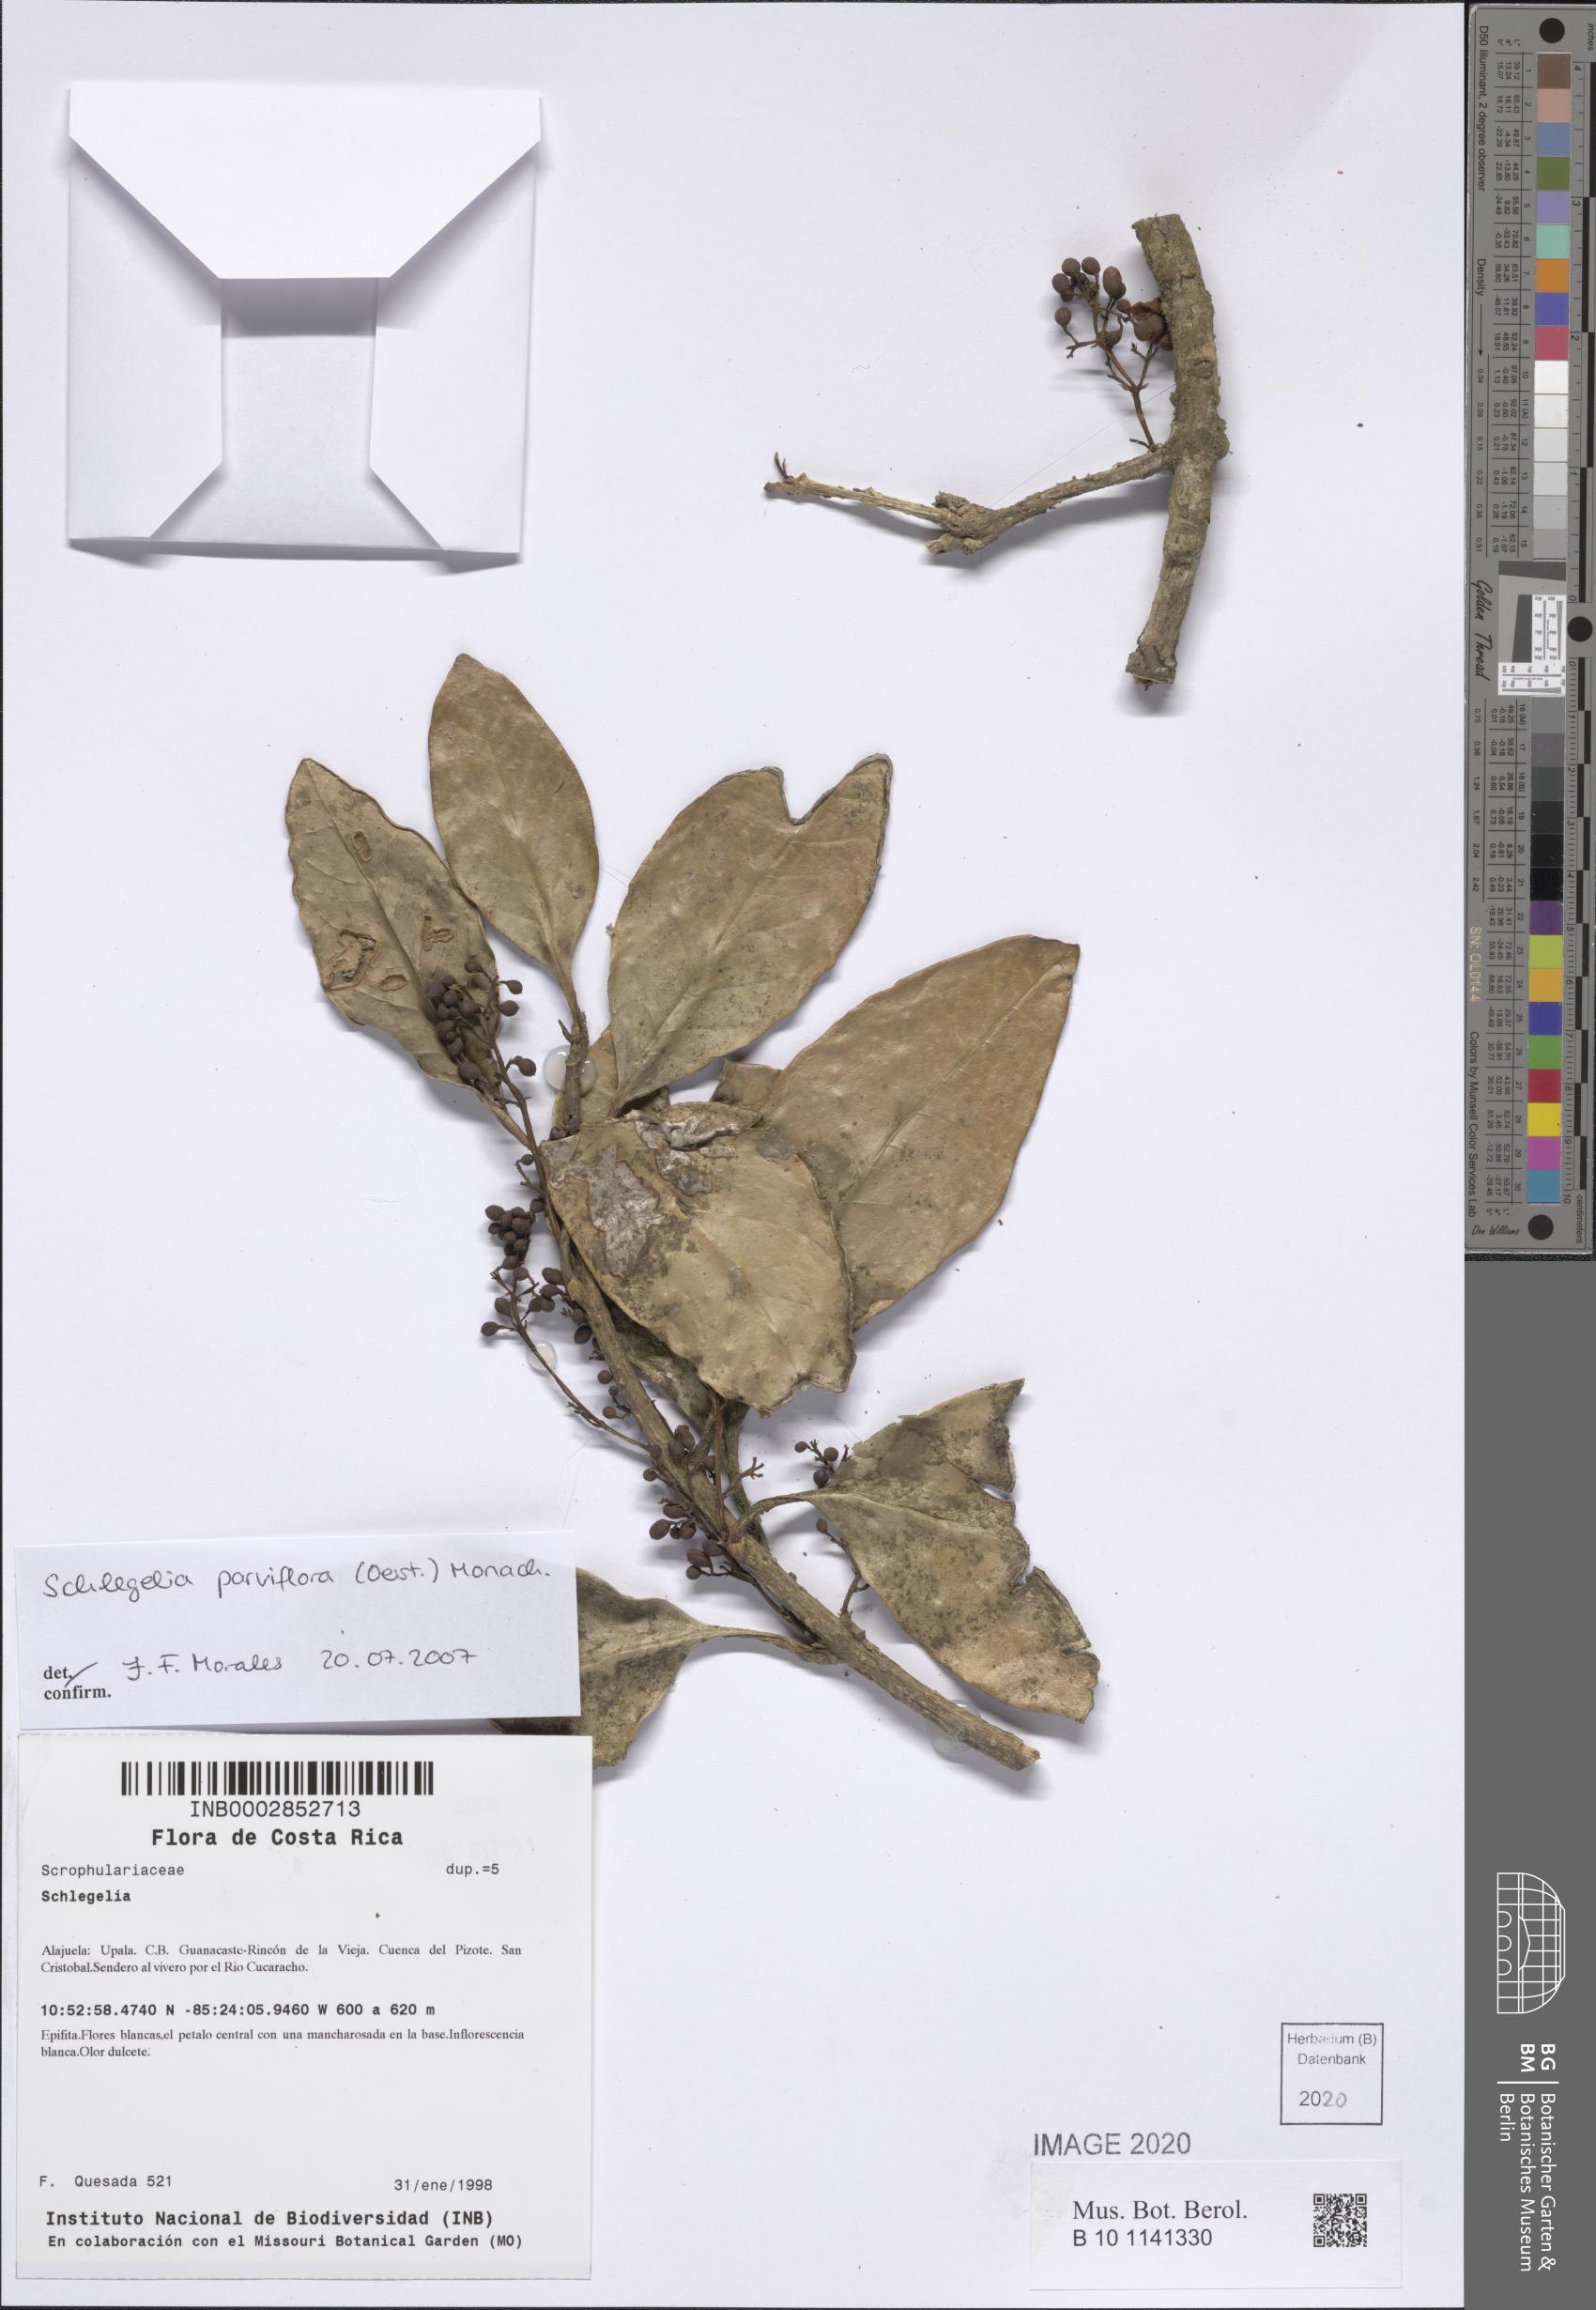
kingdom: Plantae
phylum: Tracheophyta
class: Magnoliopsida
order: Lamiales
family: Schlegeliaceae
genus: Schlegelia
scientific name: Schlegelia parviflora
